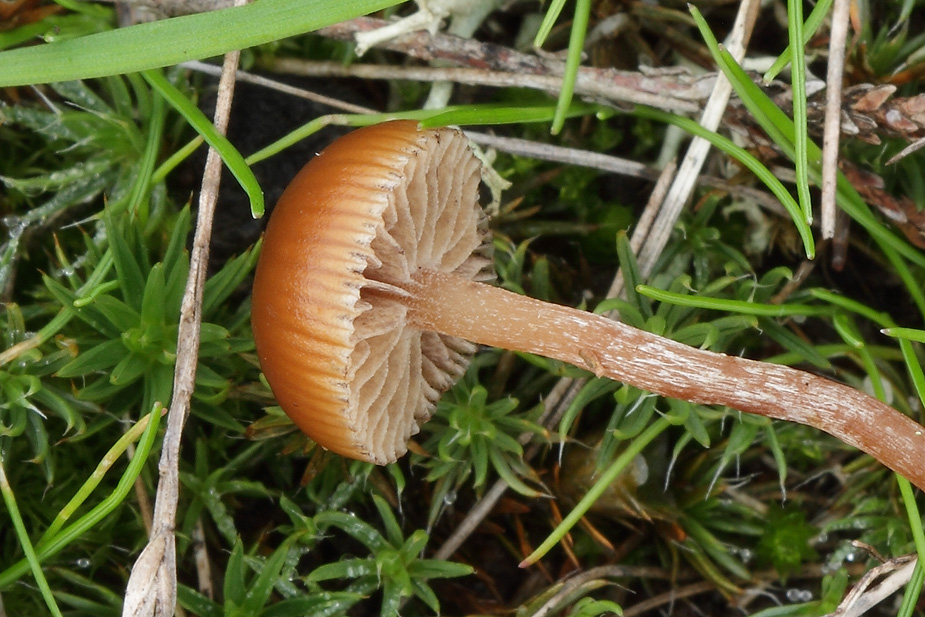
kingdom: Fungi
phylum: Basidiomycota
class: Agaricomycetes
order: Agaricales
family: Strophariaceae
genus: Deconica
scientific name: Deconica montana
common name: rødbrun stråhat
